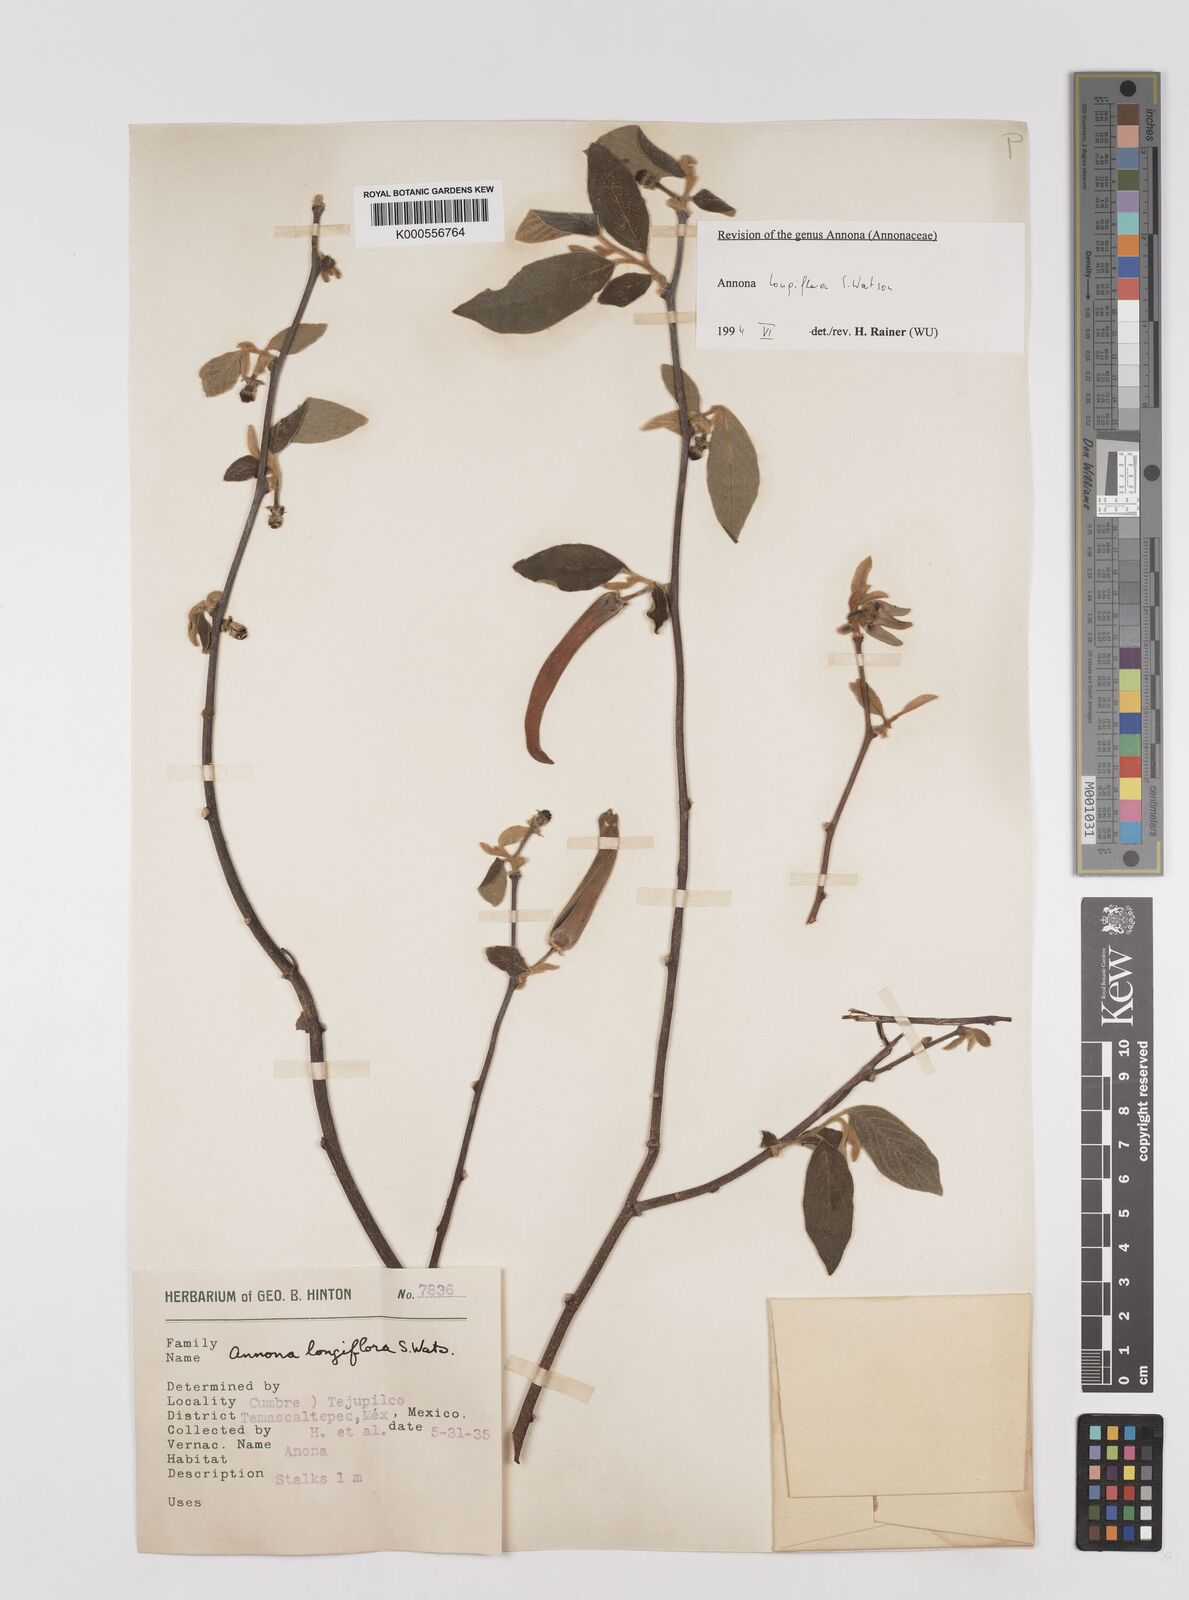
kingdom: Plantae
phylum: Tracheophyta
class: Magnoliopsida
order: Magnoliales
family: Annonaceae
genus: Annona
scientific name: Annona longiflora
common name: Wild cherimoya of jalisco
